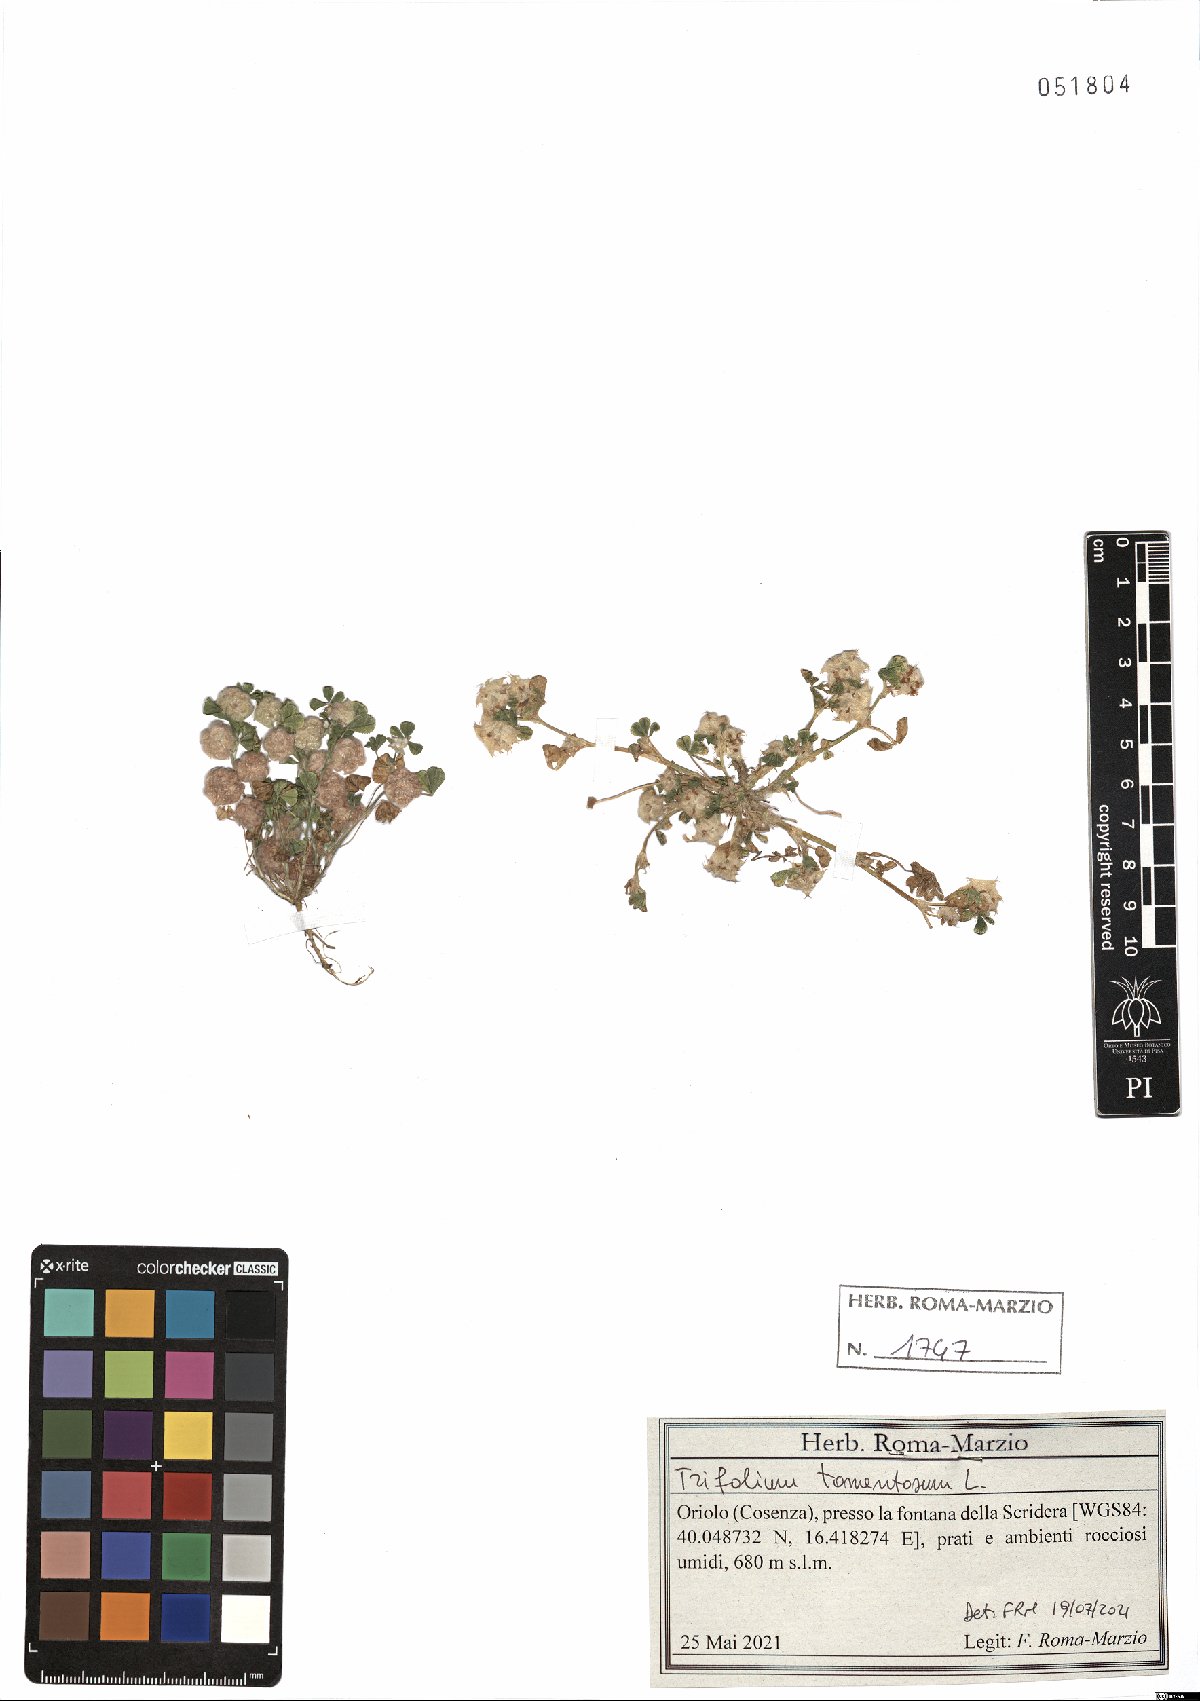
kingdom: Plantae
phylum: Tracheophyta
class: Magnoliopsida
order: Fabales
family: Fabaceae
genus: Trifolium
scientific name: Trifolium tomentosum
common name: Woolly clover
